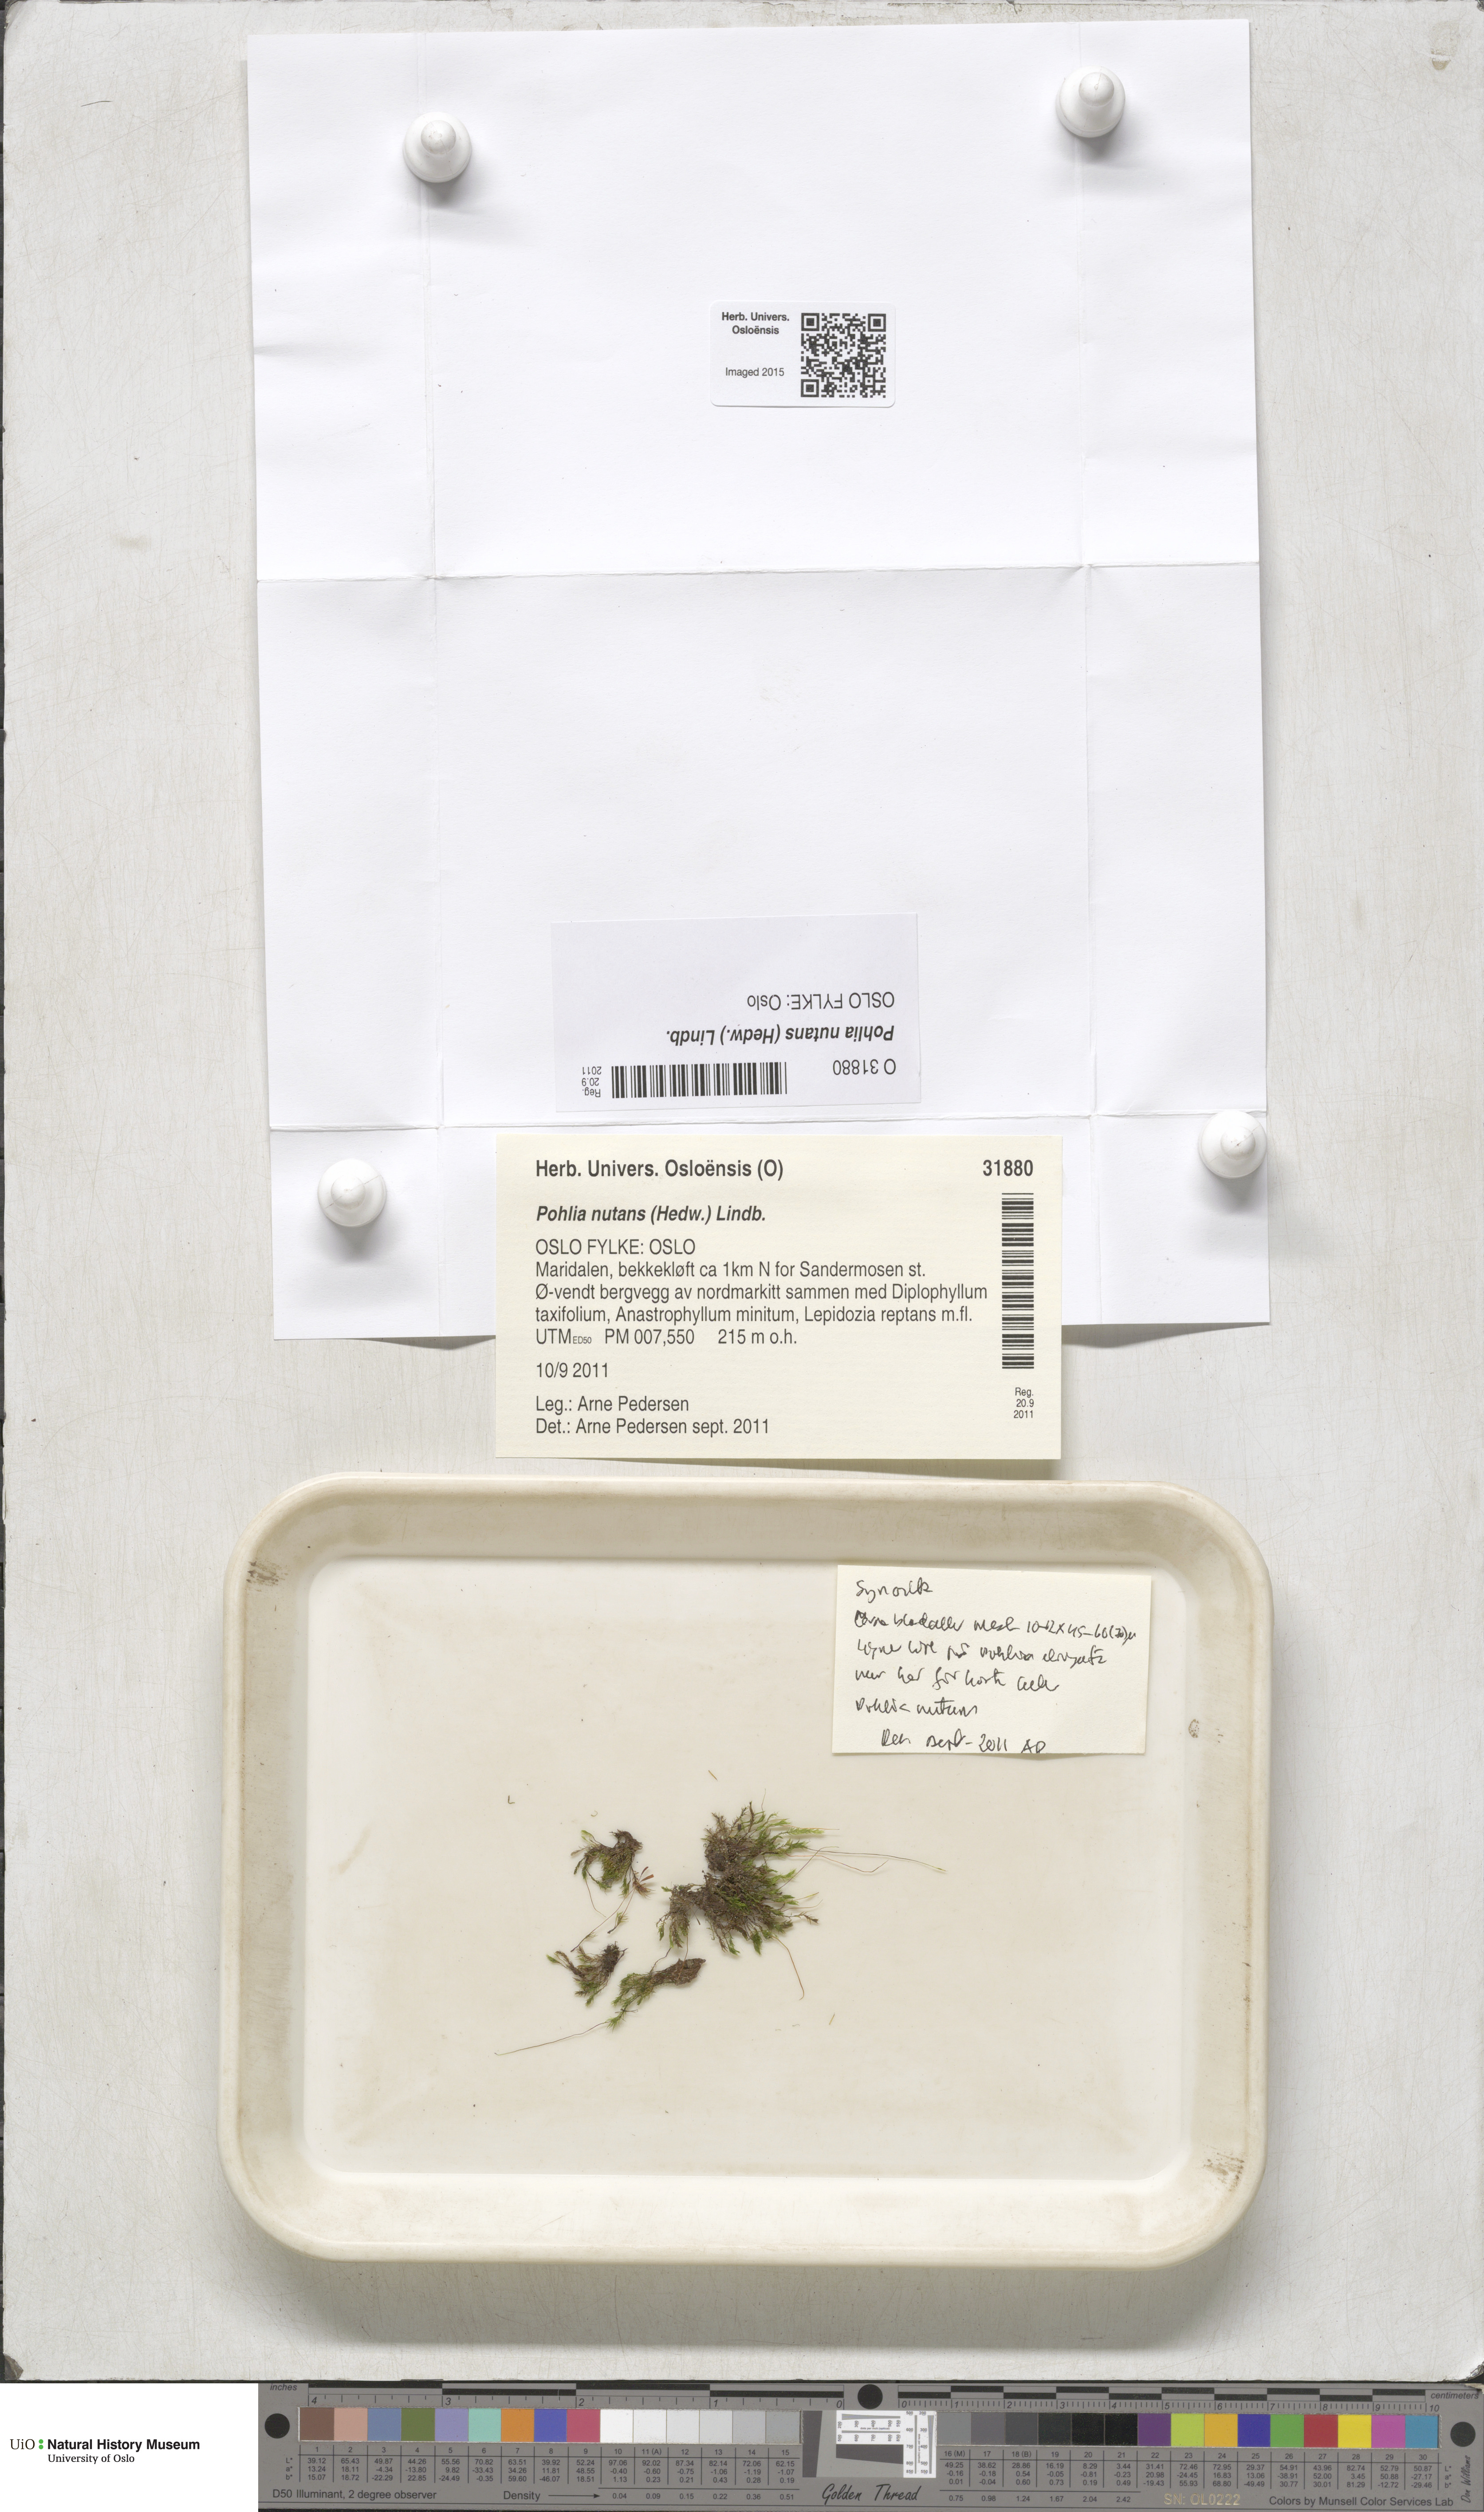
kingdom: Plantae
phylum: Bryophyta
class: Bryopsida
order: Bryales
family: Mniaceae
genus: Pohlia
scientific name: Pohlia nutans
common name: Nodding thread-moss
